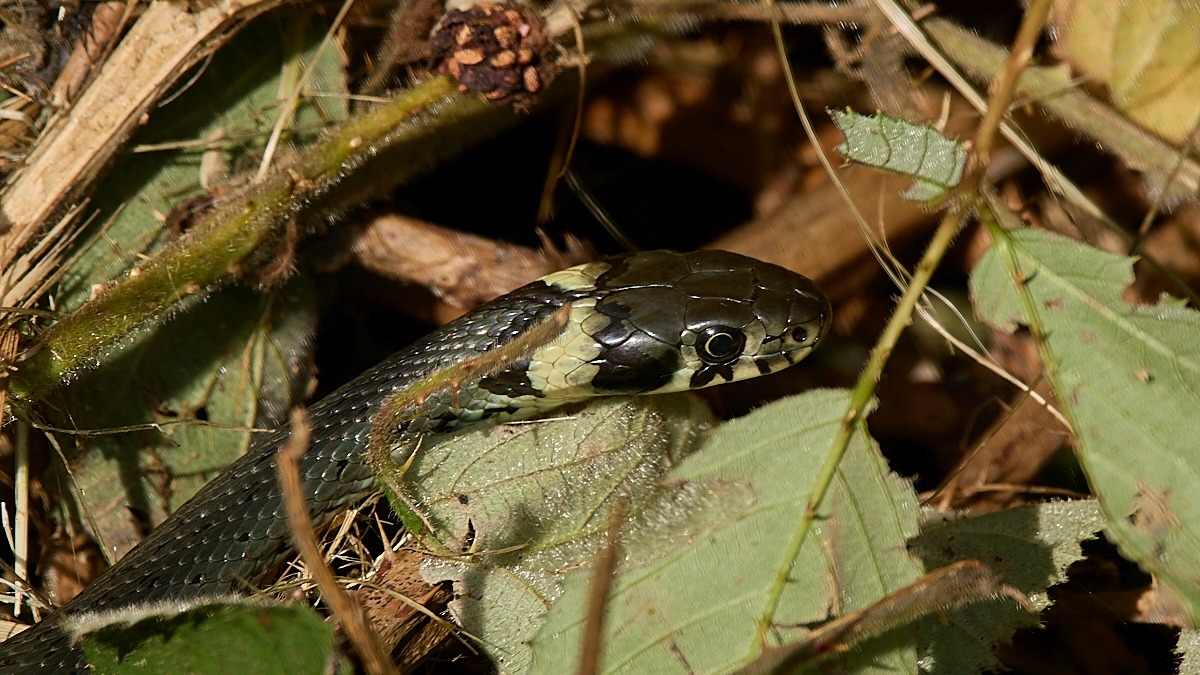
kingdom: Animalia
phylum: Chordata
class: Squamata
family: Colubridae
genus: Natrix
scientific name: Natrix natrix
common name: Snog
